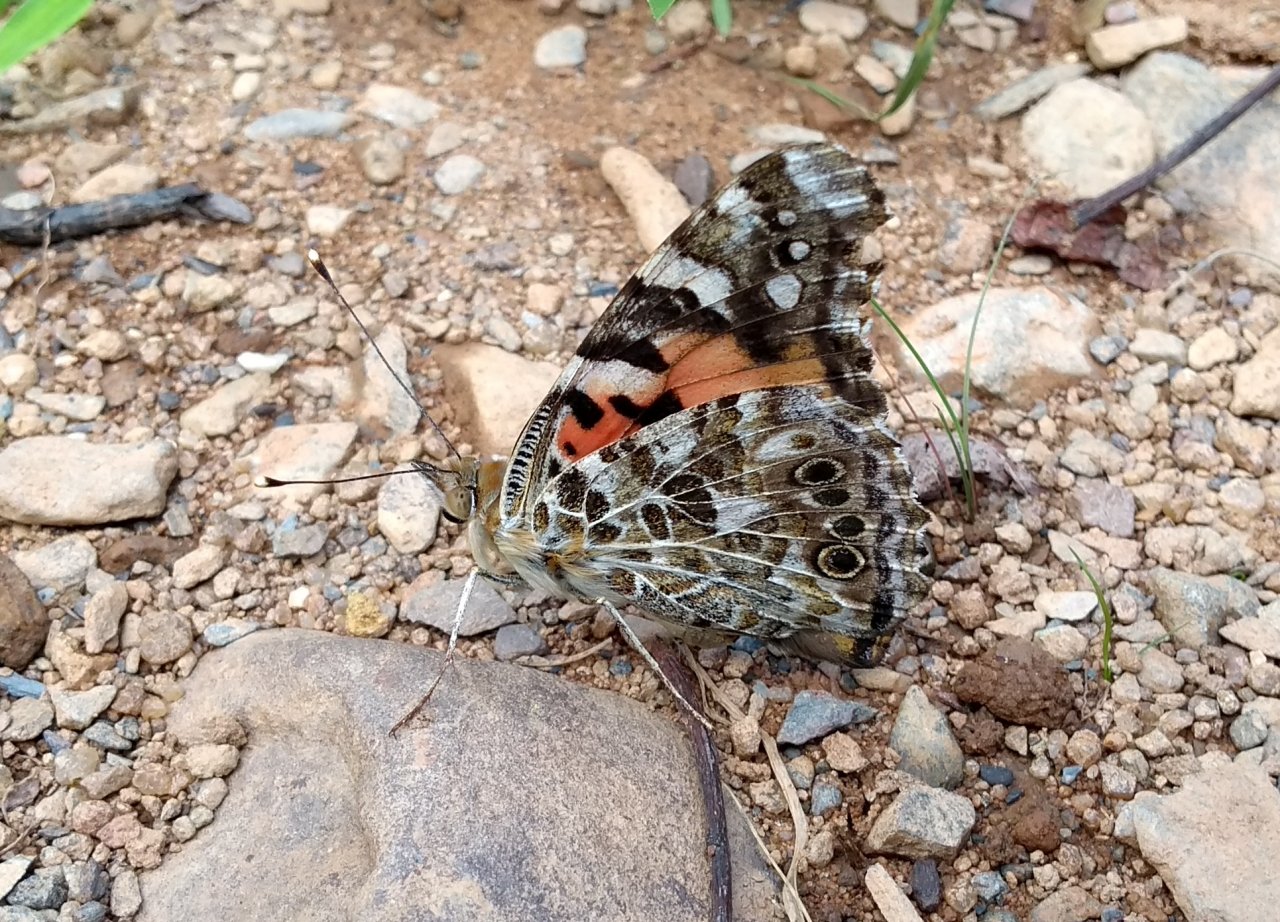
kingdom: Animalia
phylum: Arthropoda
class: Insecta
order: Lepidoptera
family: Nymphalidae
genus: Vanessa
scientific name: Vanessa cardui
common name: Painted Lady
